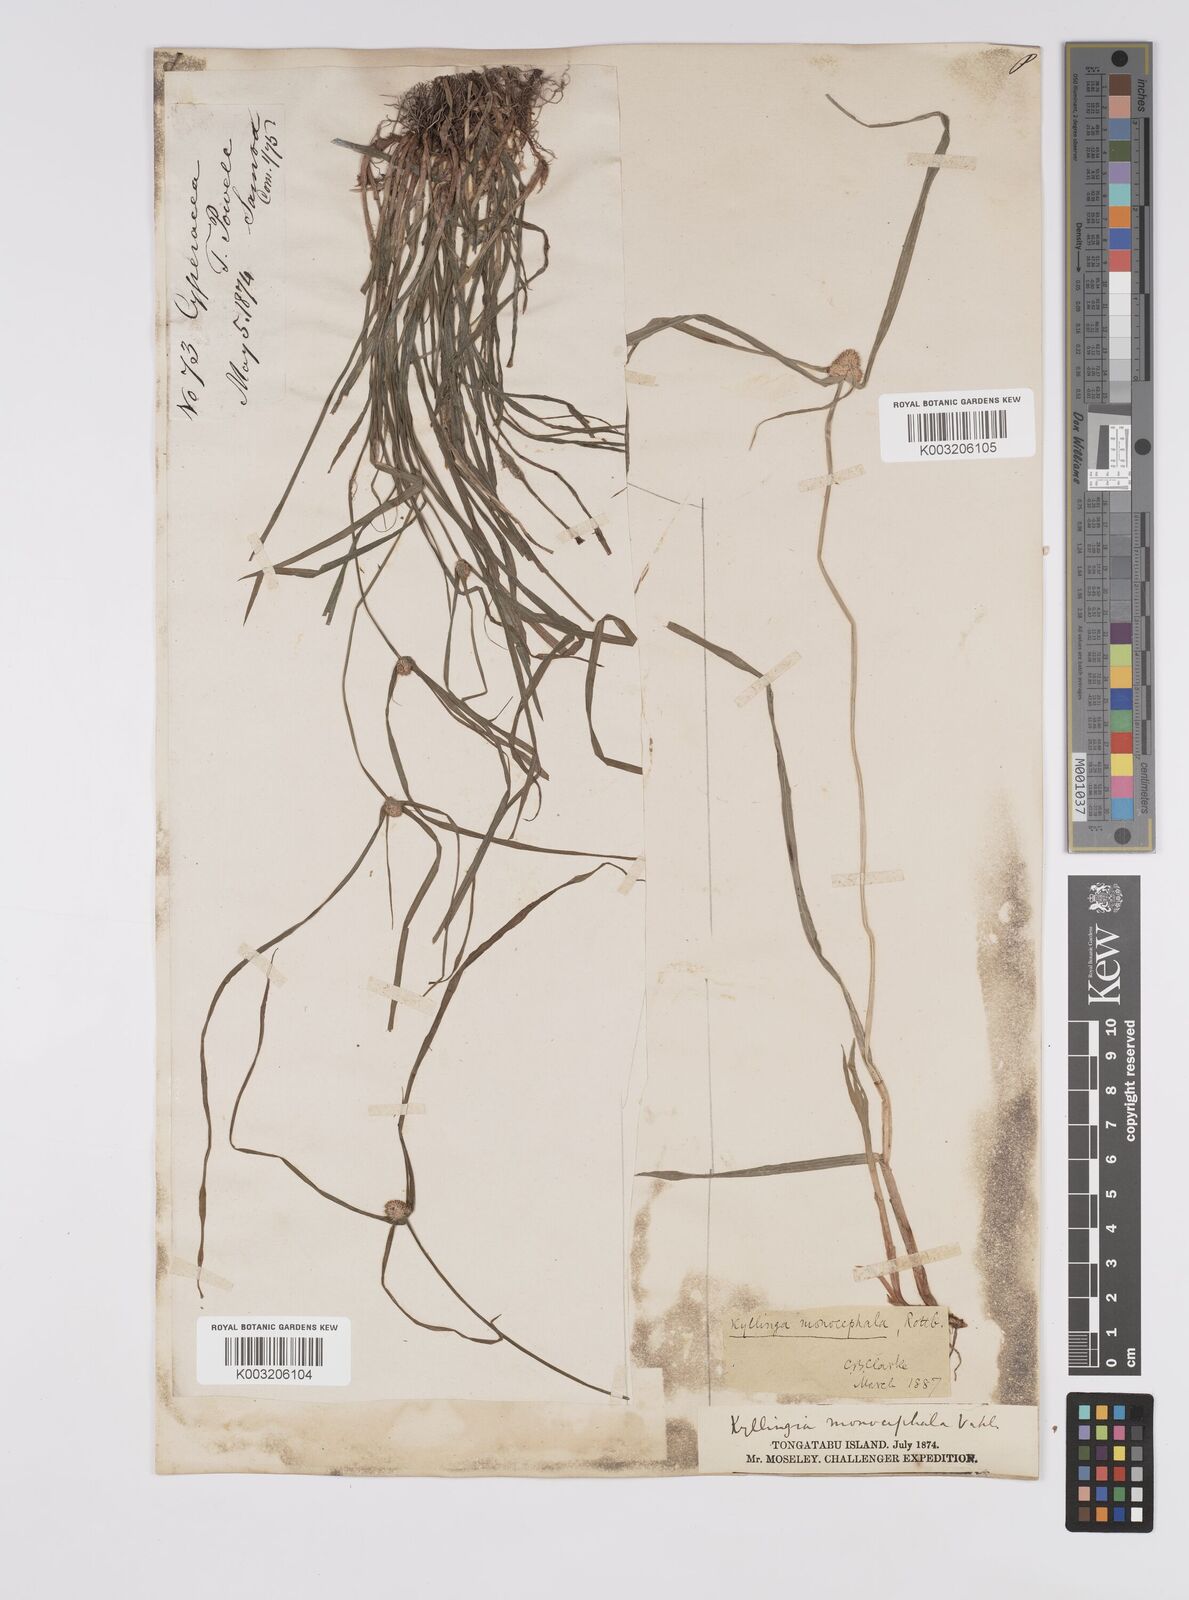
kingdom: Plantae
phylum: Tracheophyta
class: Liliopsida
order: Poales
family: Cyperaceae
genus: Cyperus
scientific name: Cyperus nemoralis
